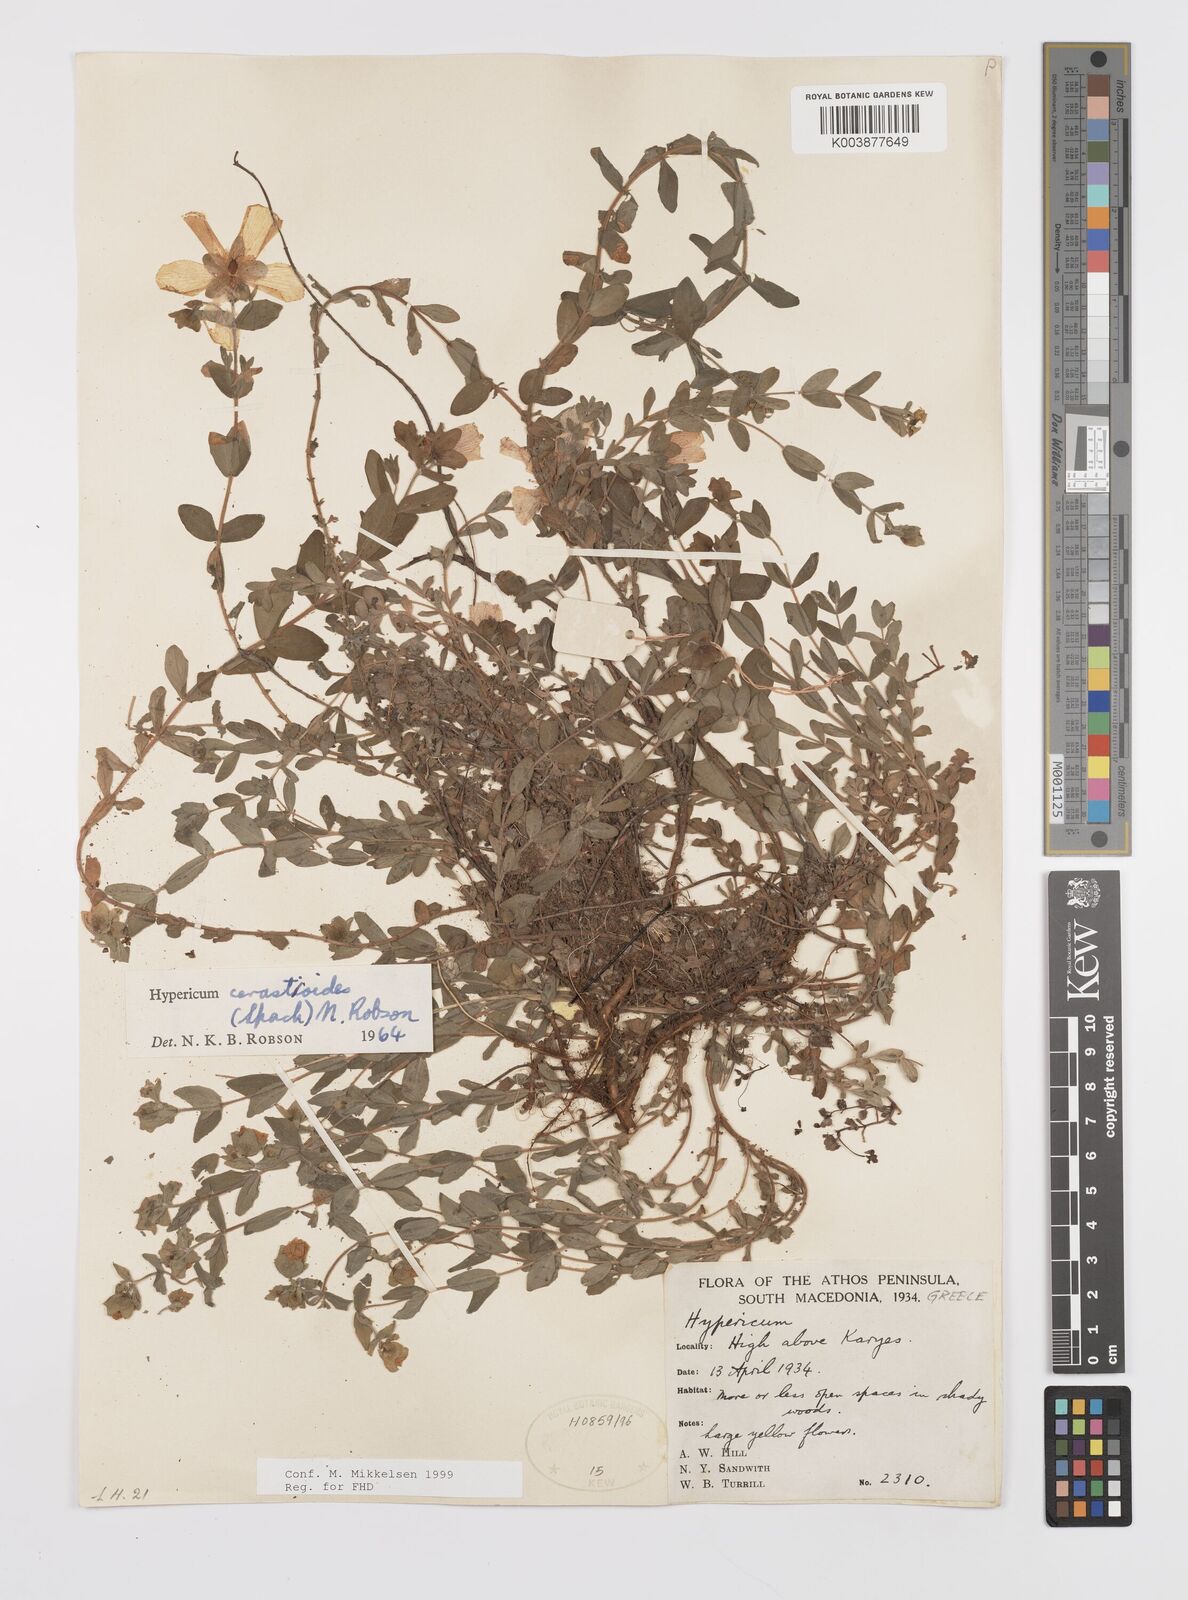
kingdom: Plantae
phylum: Tracheophyta
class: Magnoliopsida
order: Malpighiales
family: Hypericaceae
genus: Hypericum
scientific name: Hypericum cerastoides
